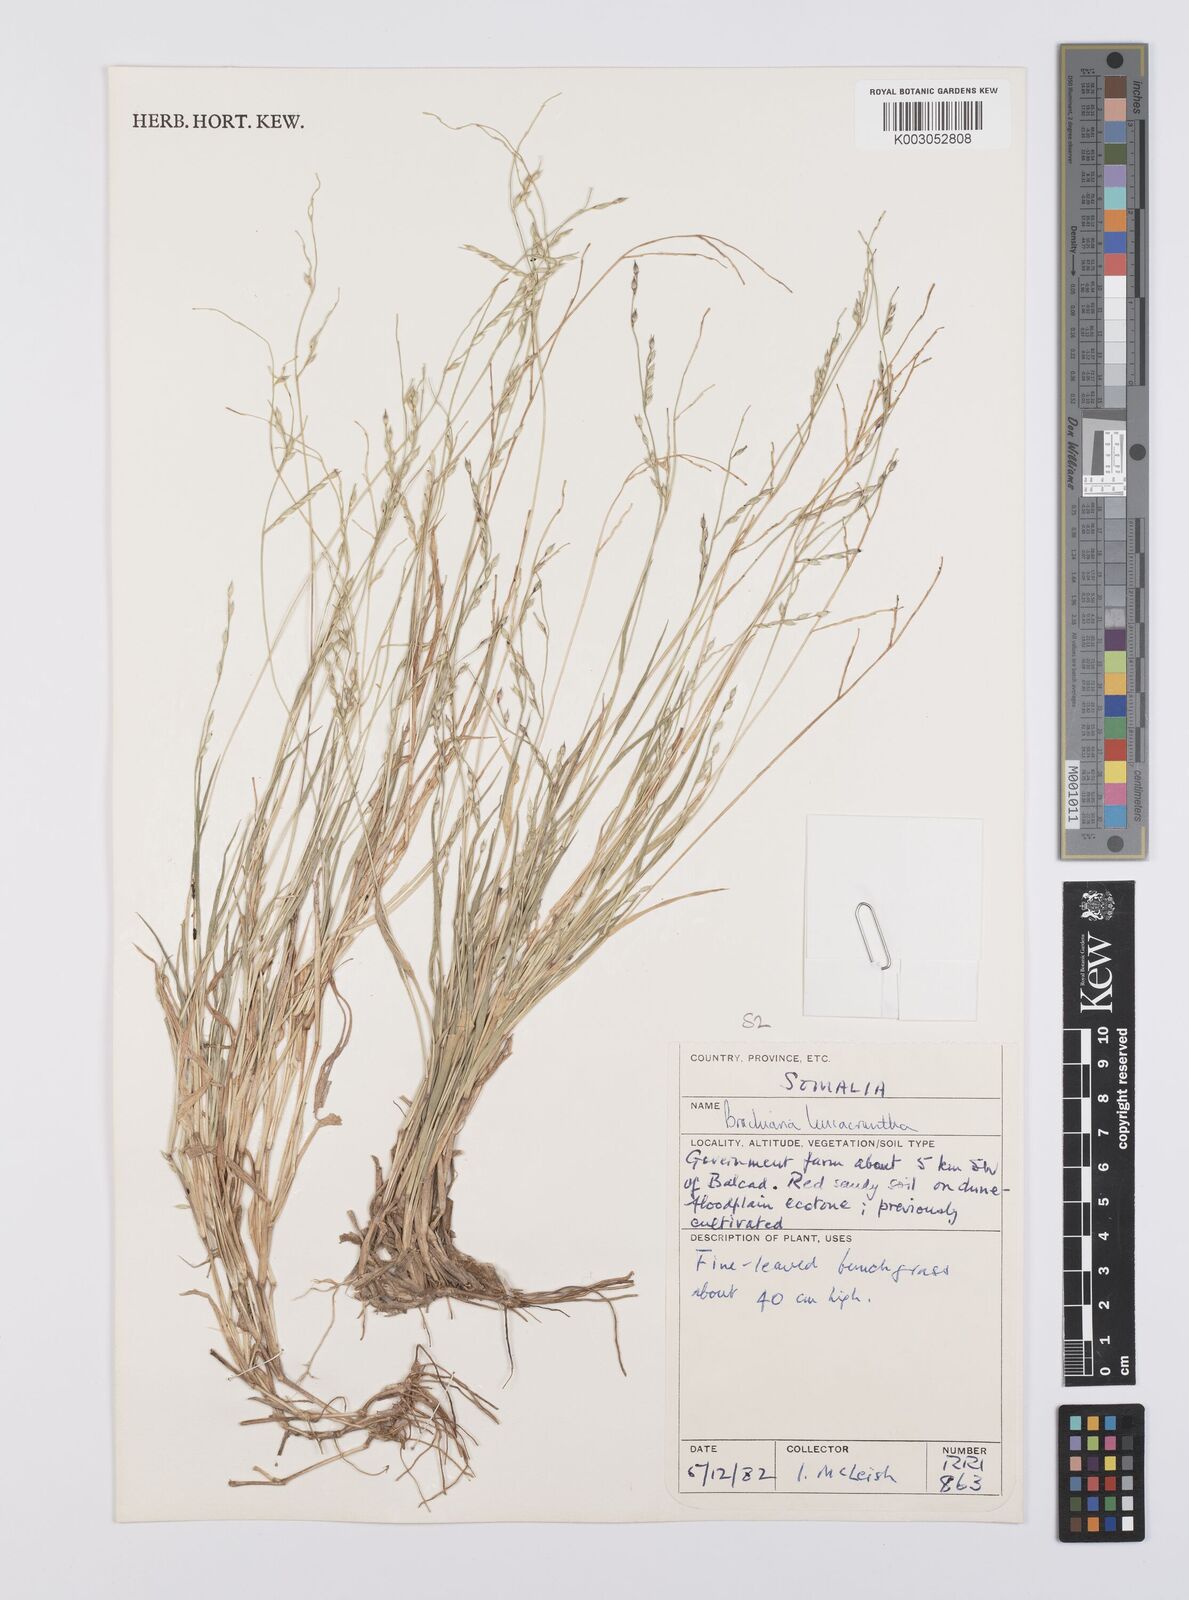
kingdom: Plantae
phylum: Tracheophyta
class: Liliopsida
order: Poales
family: Poaceae
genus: Urochloa
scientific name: Urochloa xantholeuca
